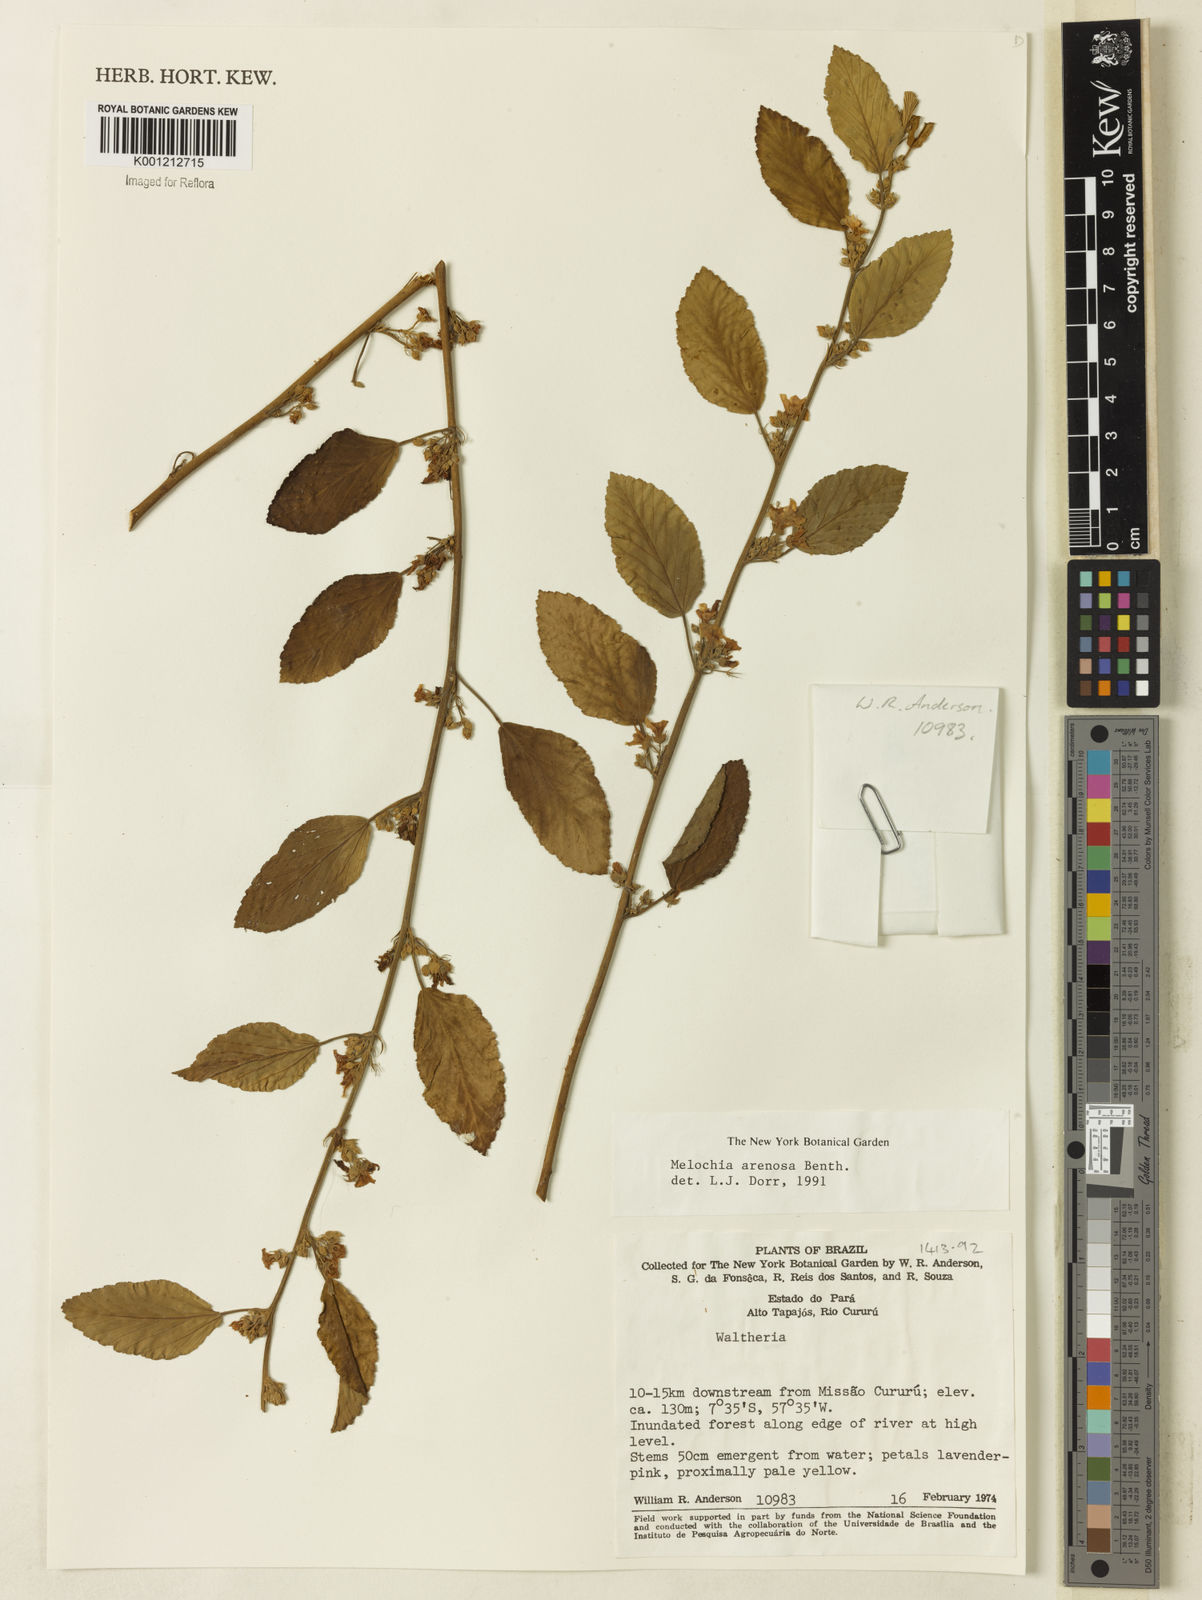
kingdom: Plantae
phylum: Tracheophyta
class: Magnoliopsida
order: Malvales
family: Malvaceae
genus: Melochia
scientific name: Melochia arenosa
